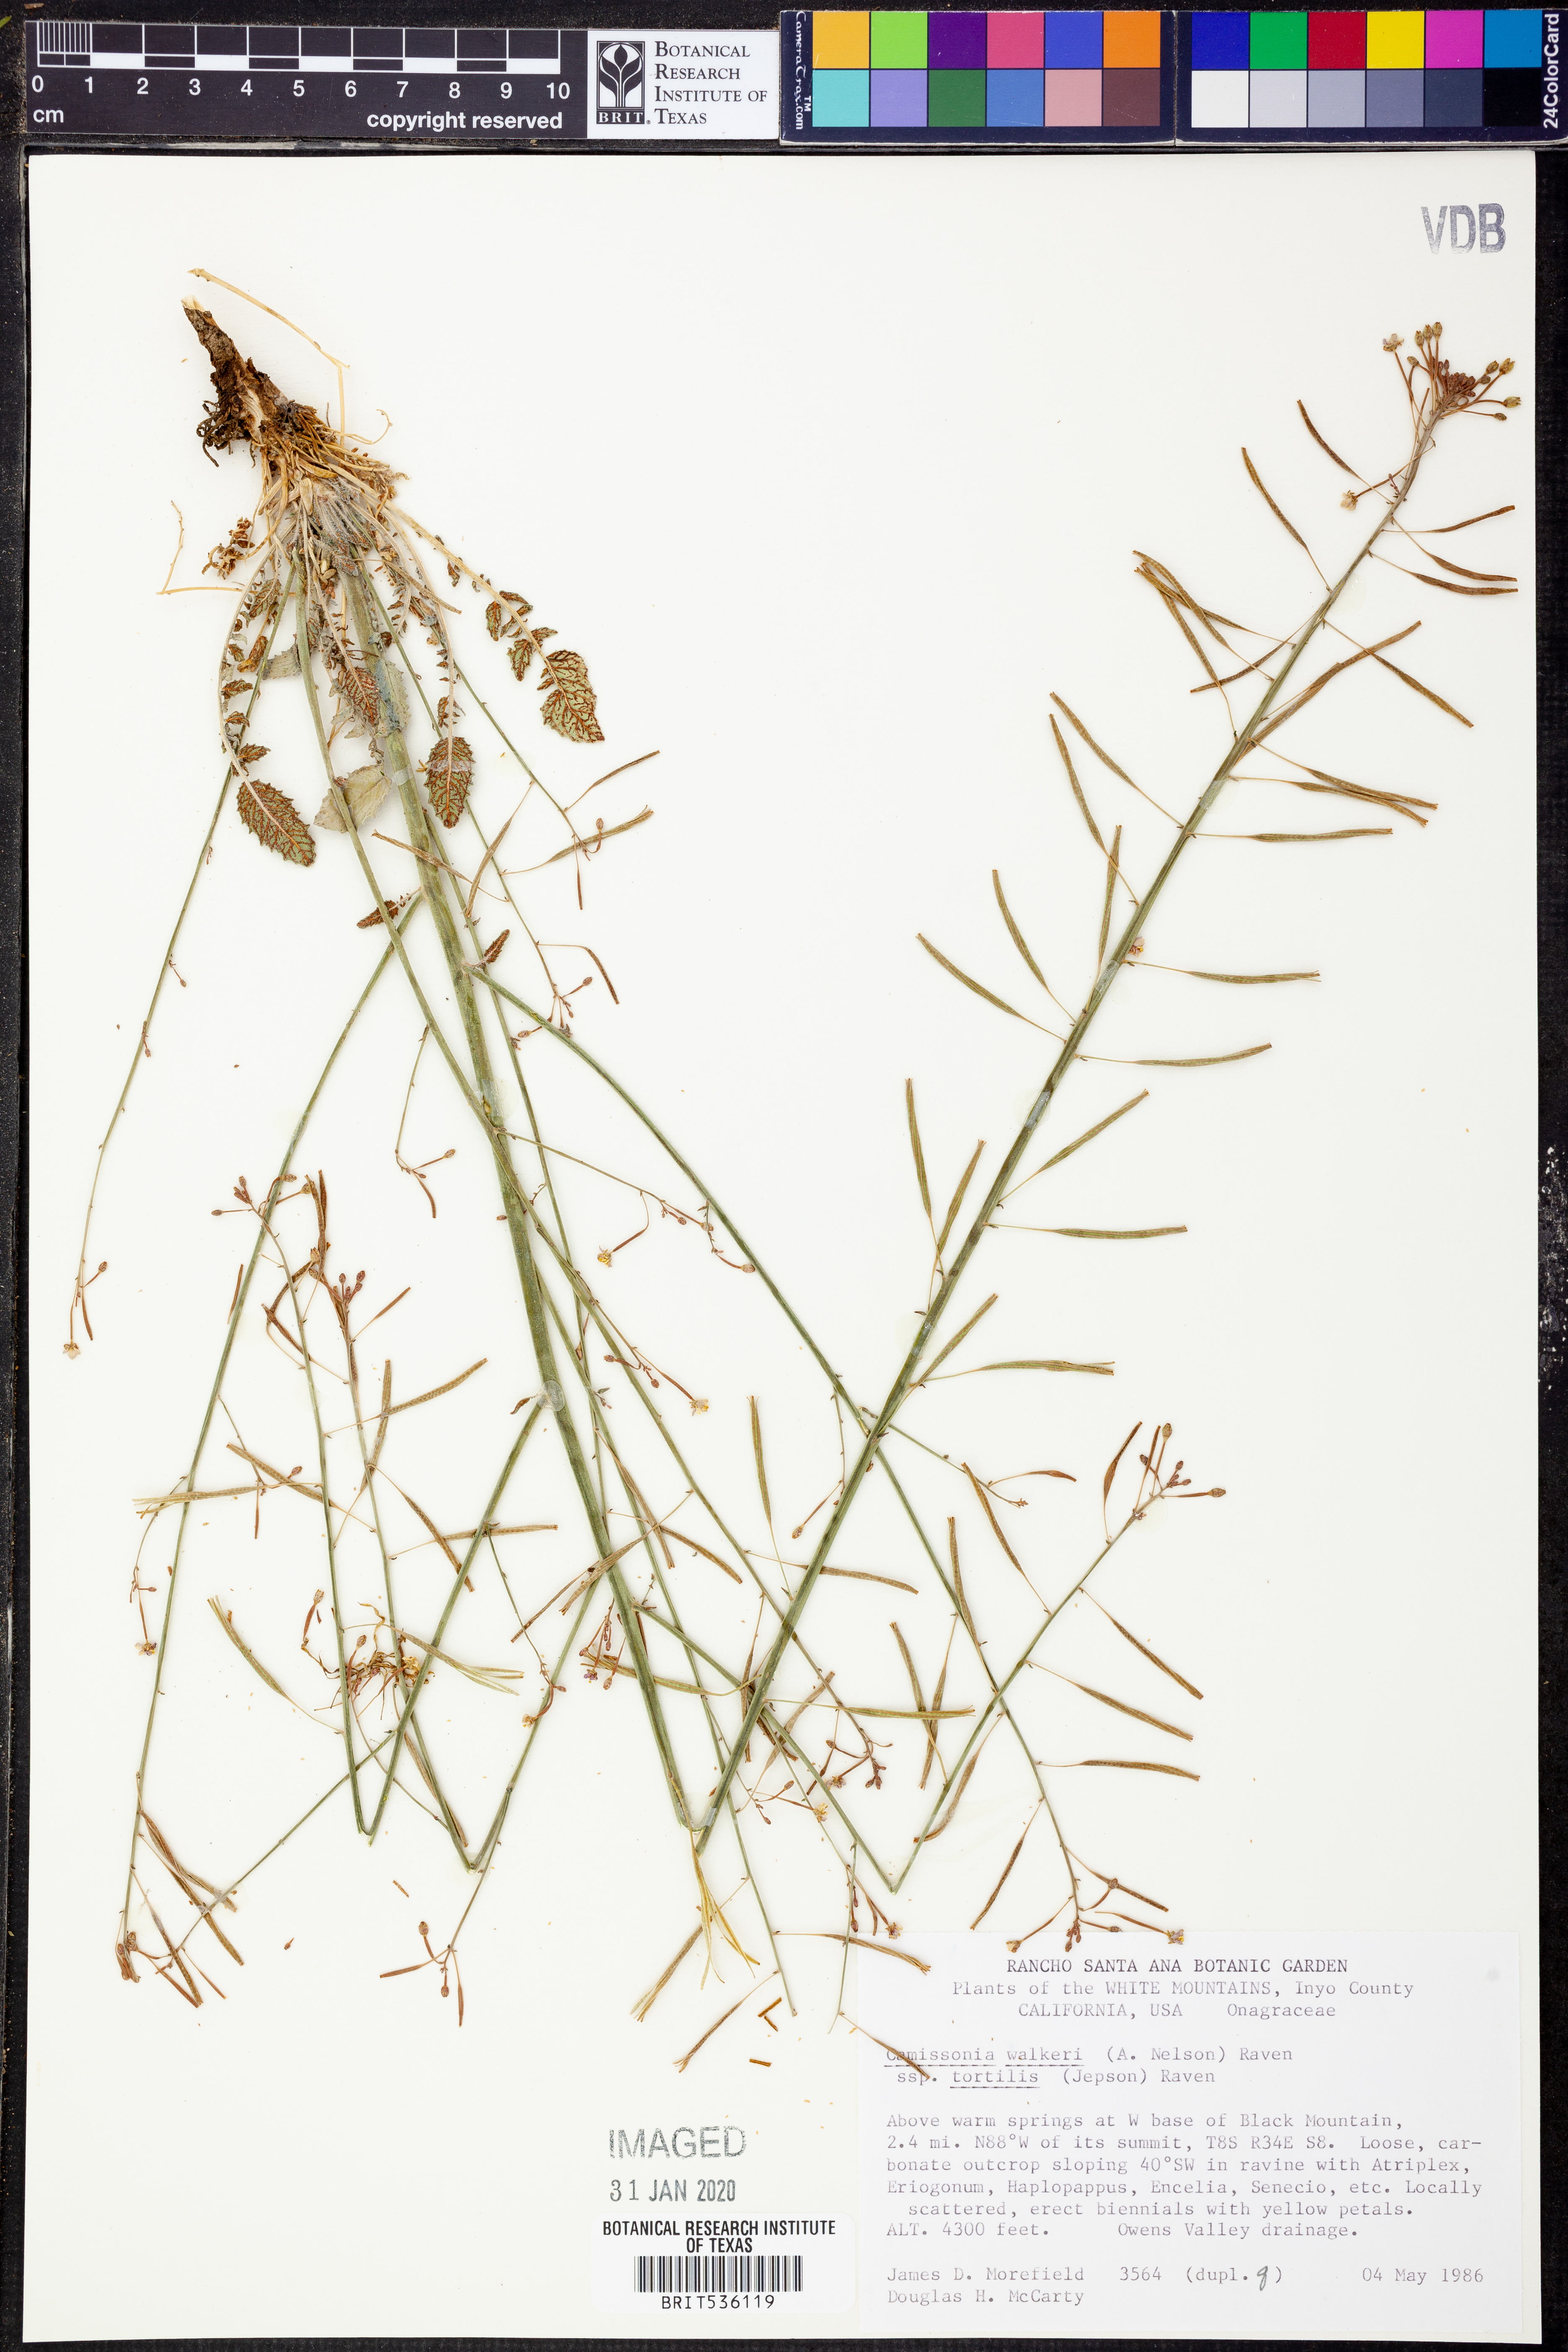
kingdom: Plantae
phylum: Tracheophyta
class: Magnoliopsida
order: Myrtales
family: Onagraceae
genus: Chylismia
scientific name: Chylismia walkeri
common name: Walker's suncup
